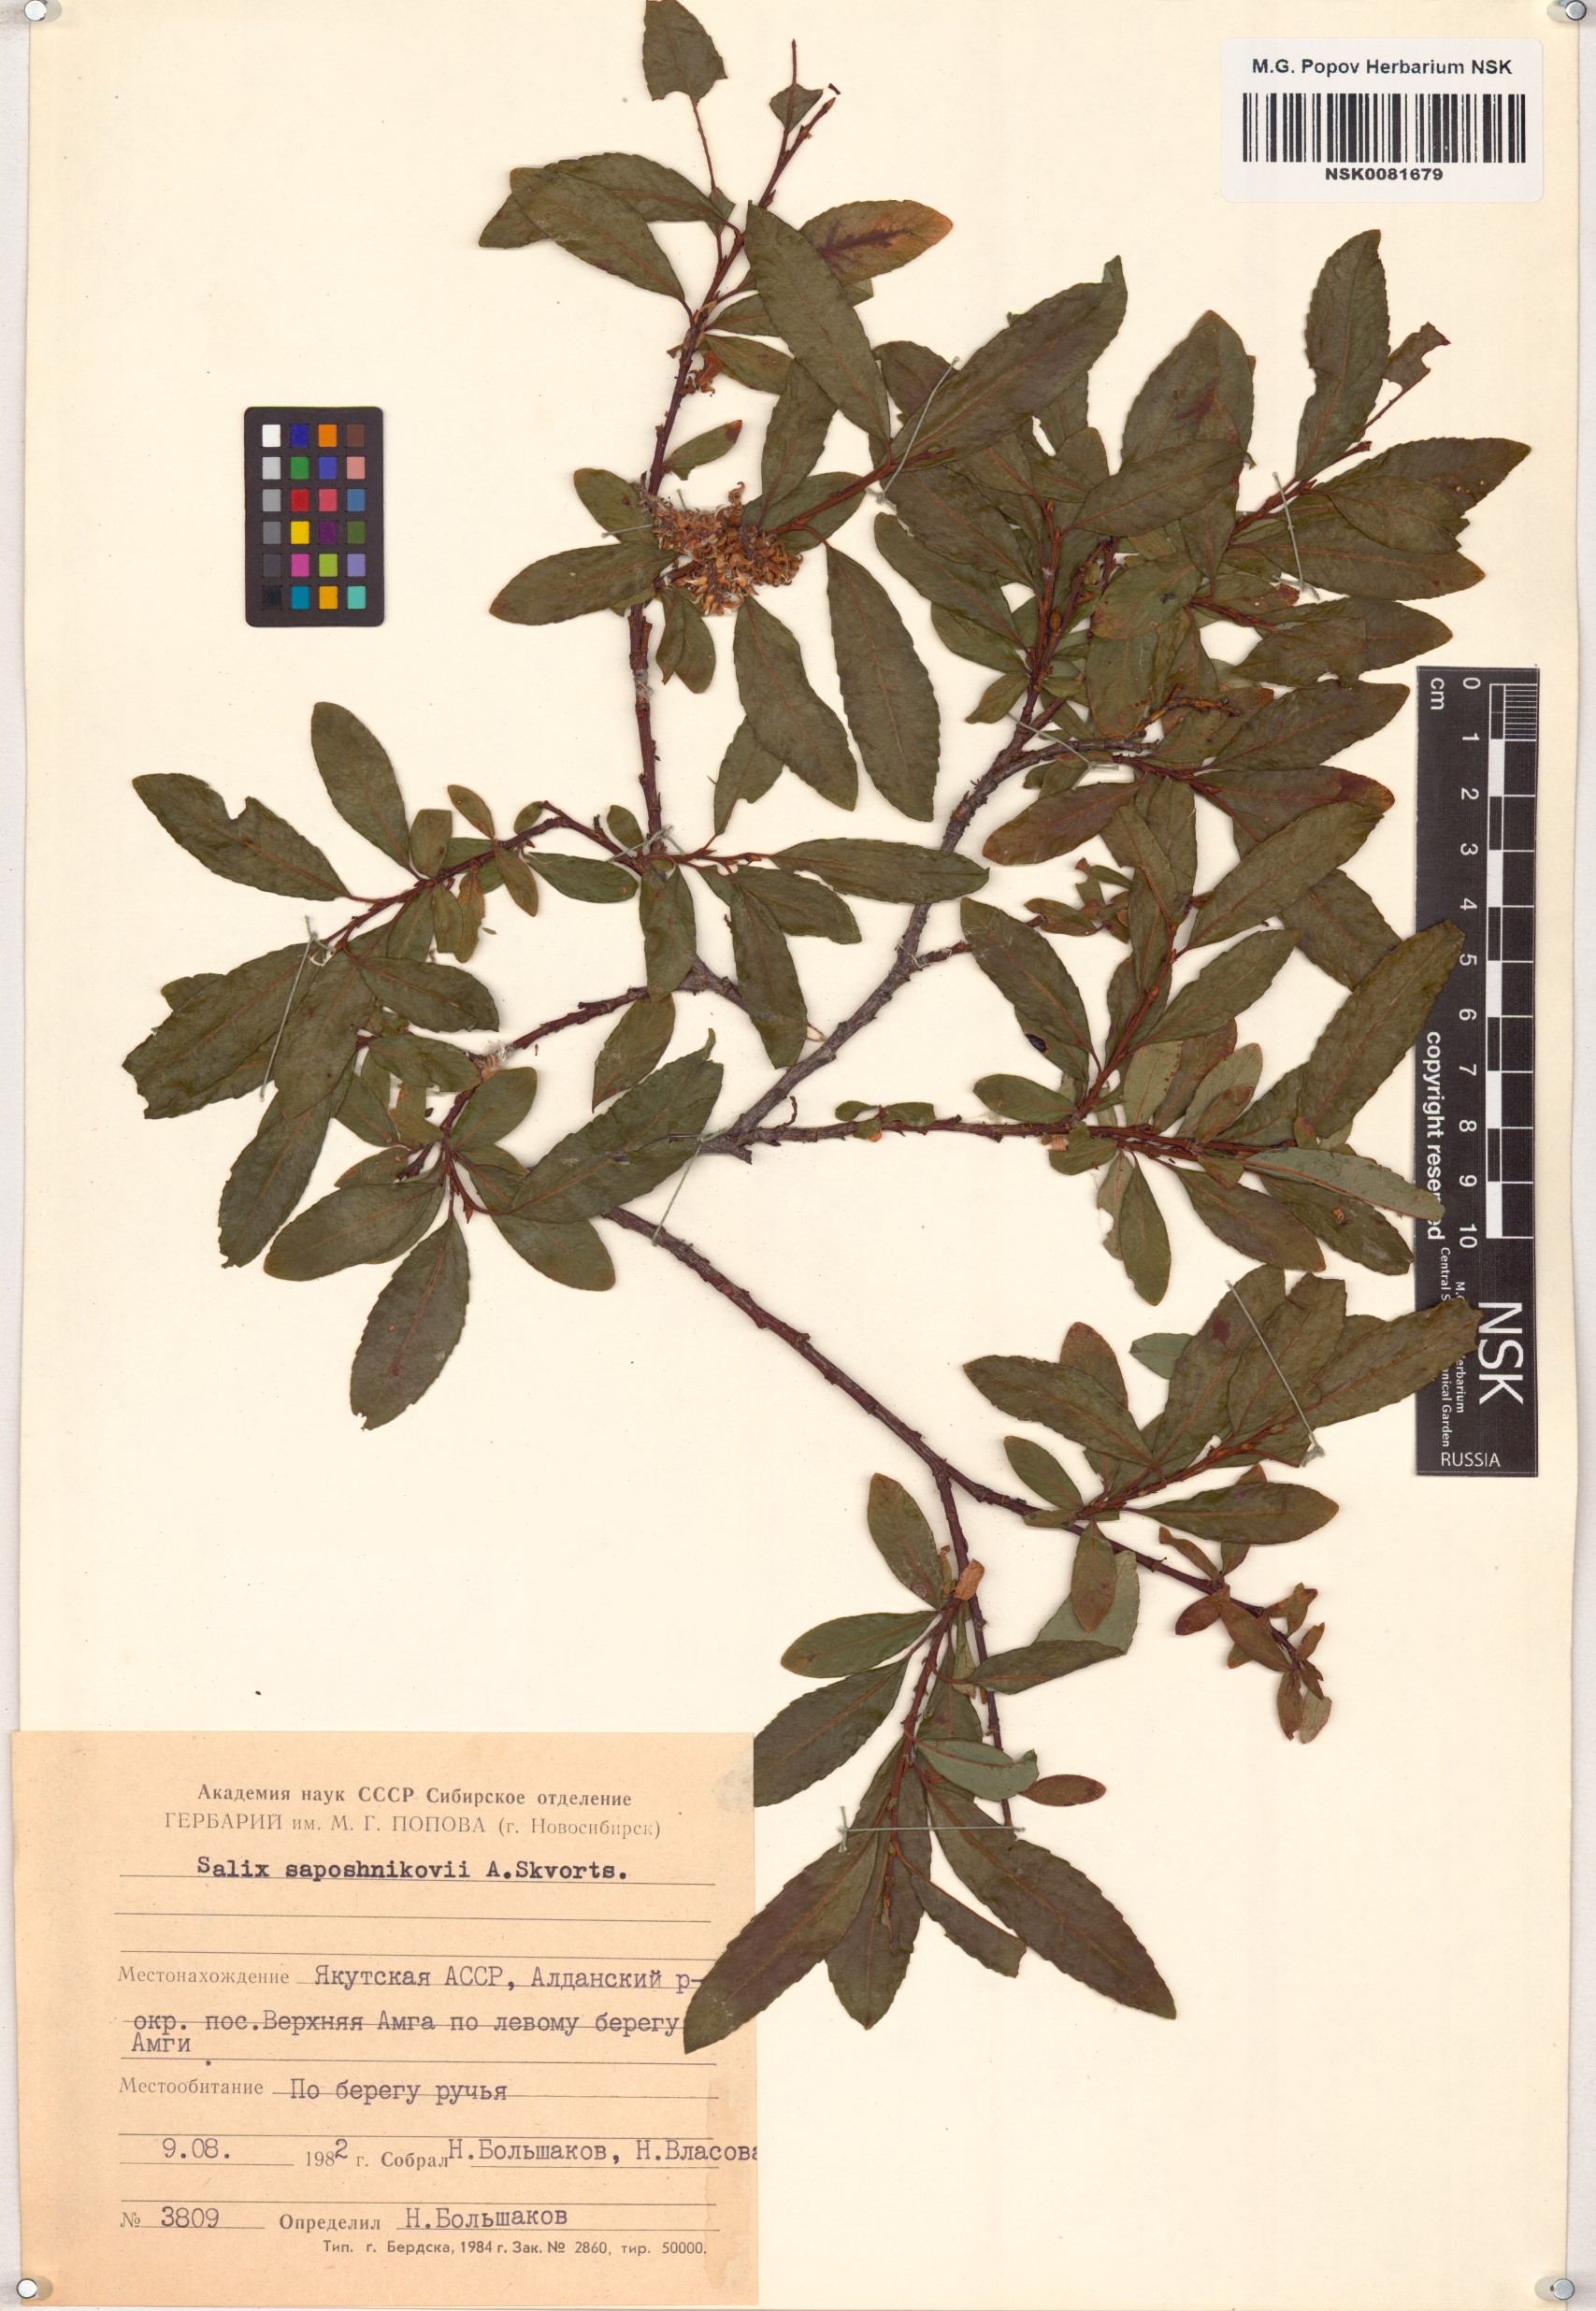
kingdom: Plantae
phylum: Tracheophyta
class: Magnoliopsida
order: Malpighiales
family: Salicaceae
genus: Salix
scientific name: Salix saposhnikovii
